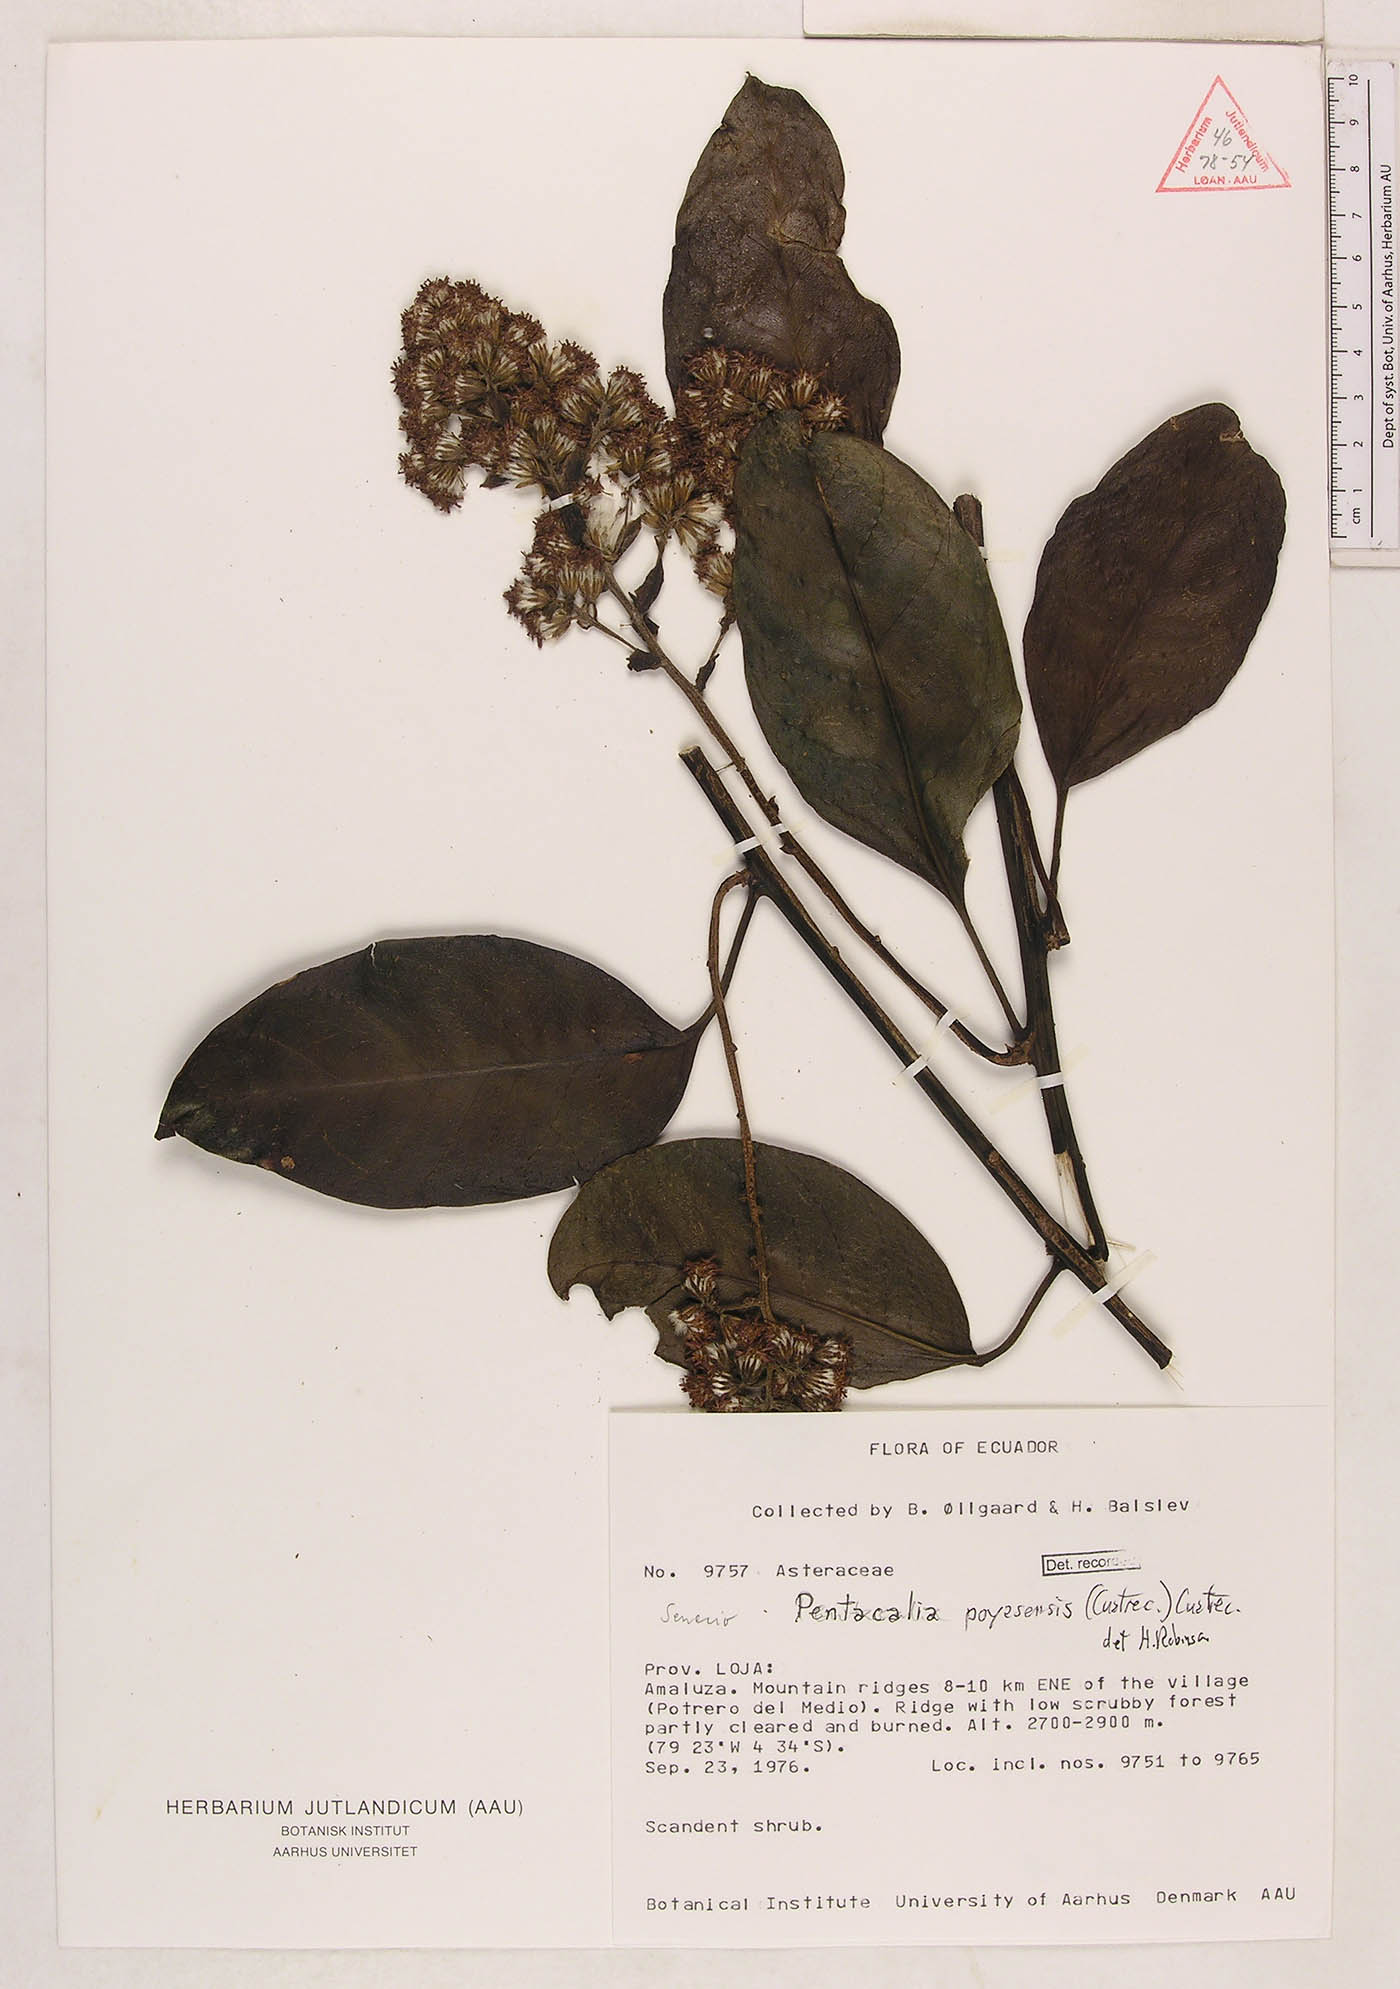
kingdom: Plantae
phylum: Tracheophyta
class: Magnoliopsida
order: Asterales
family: Asteraceae
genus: Pentacalia
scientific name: Pentacalia sevillana
